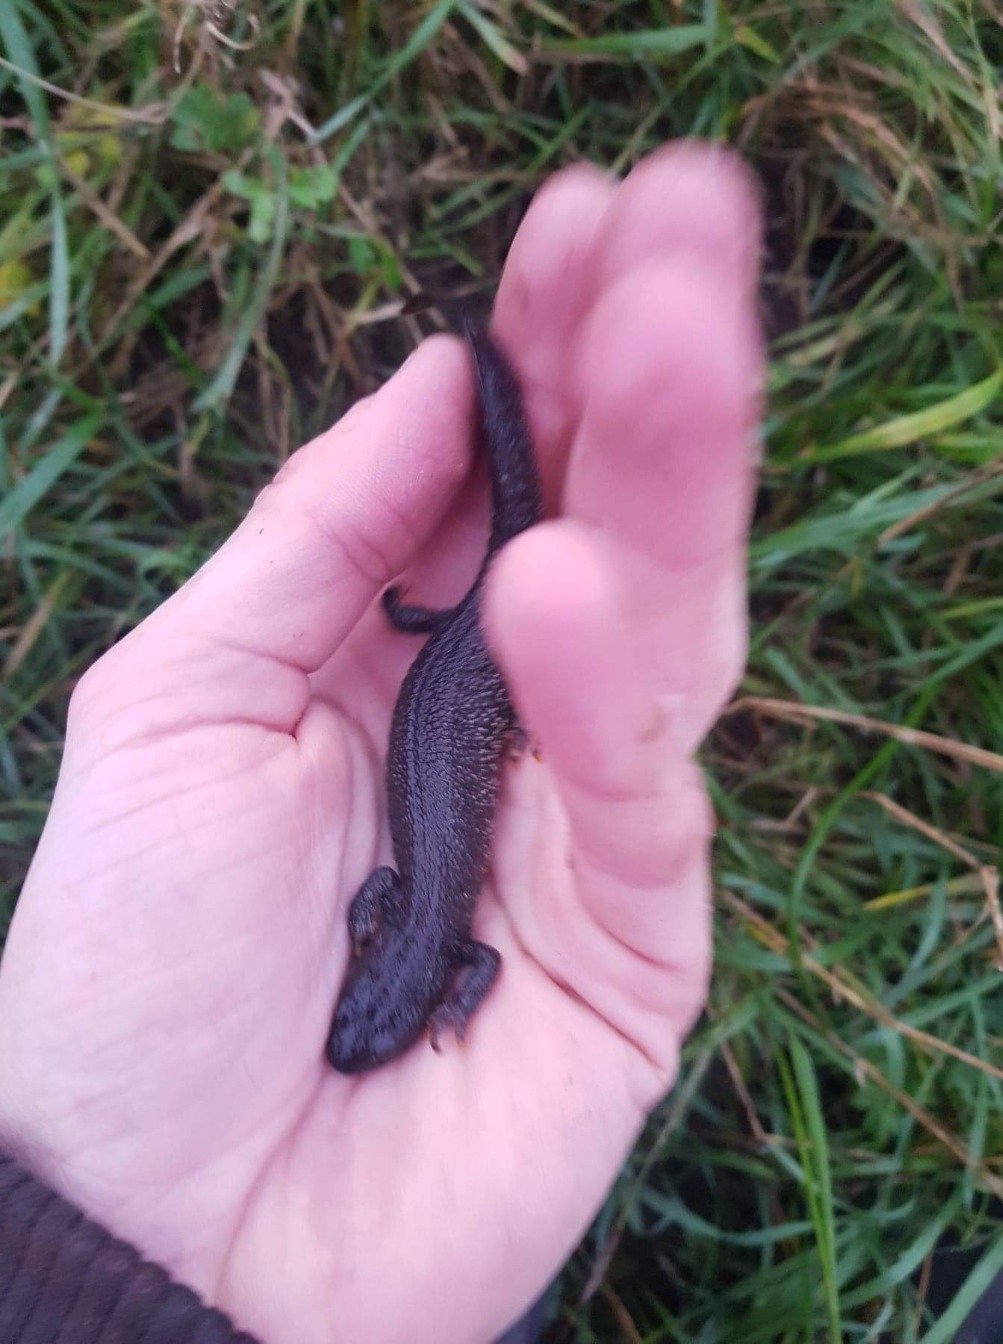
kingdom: Animalia
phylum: Chordata
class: Amphibia
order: Caudata
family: Salamandridae
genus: Triturus
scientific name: Triturus cristatus
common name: Stor vandsalamander
